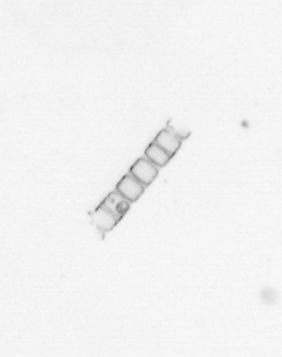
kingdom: Chromista
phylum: Ochrophyta
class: Bacillariophyceae
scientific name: Bacillariophyceae
